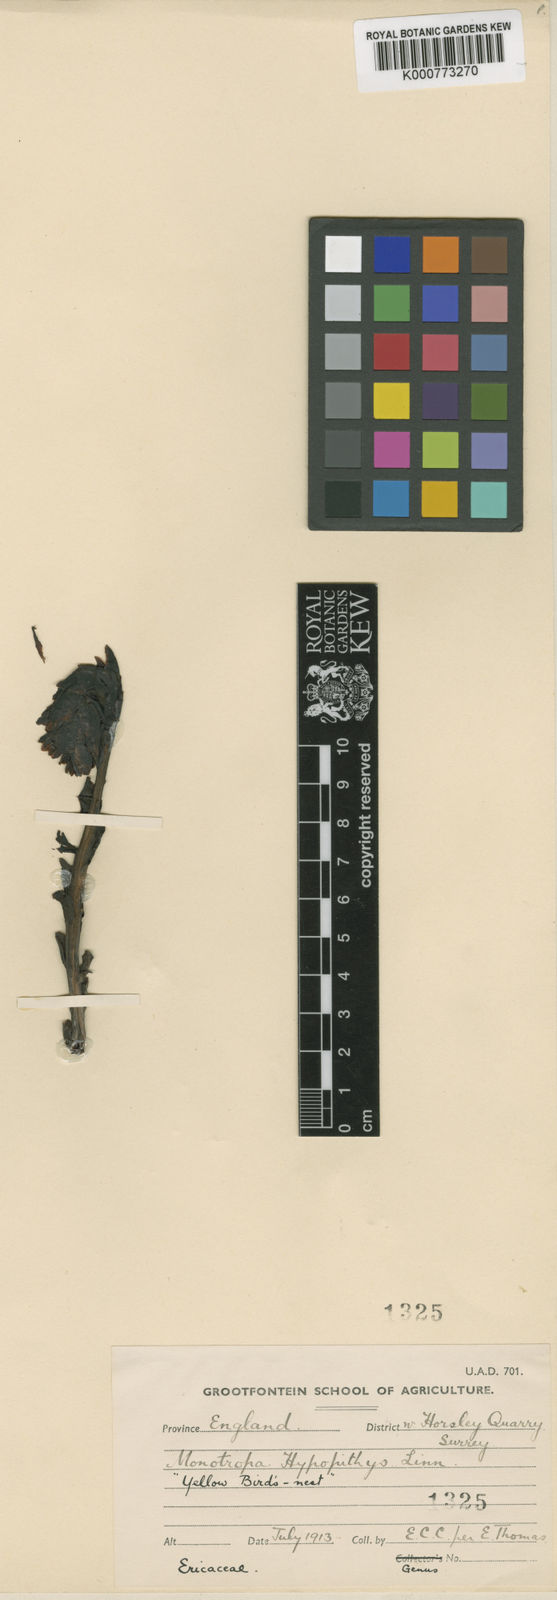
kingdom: Plantae
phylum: Tracheophyta
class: Magnoliopsida
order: Ericales
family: Ericaceae
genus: Monotropa
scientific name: Monotropa
